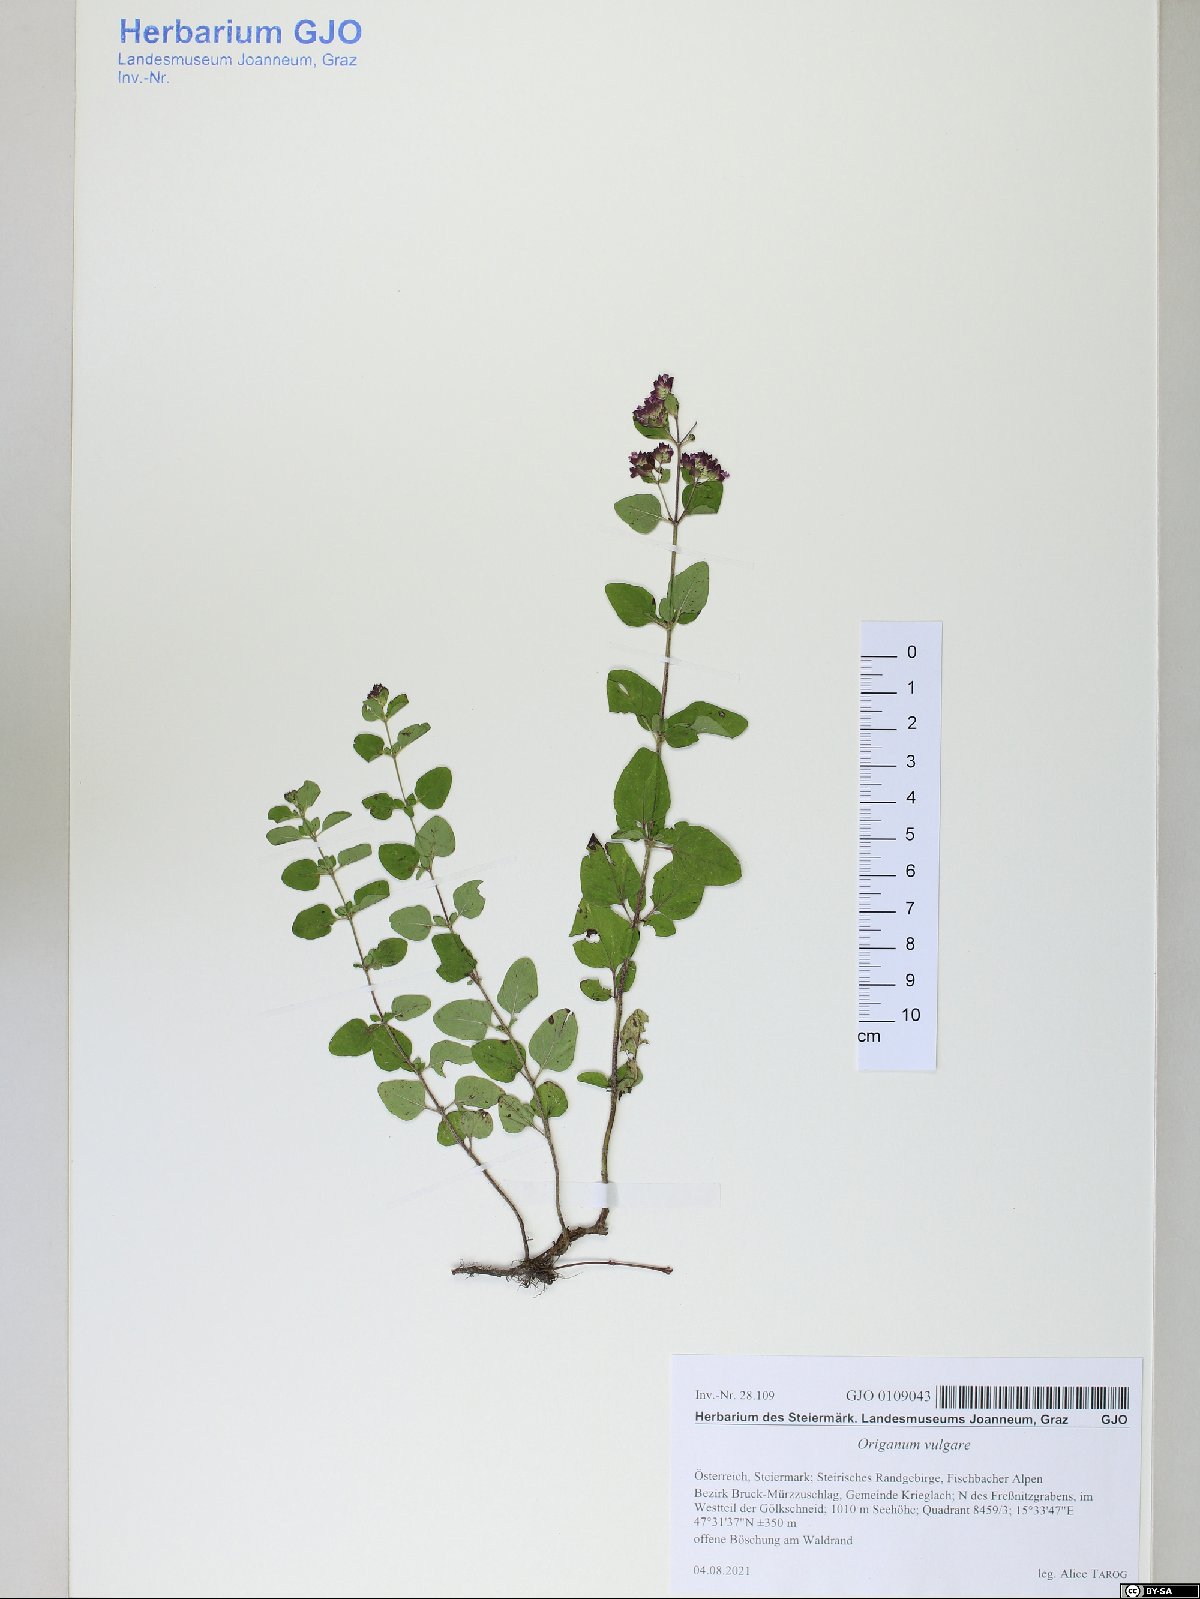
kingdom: Plantae
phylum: Tracheophyta
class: Magnoliopsida
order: Lamiales
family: Lamiaceae
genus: Origanum
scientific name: Origanum vulgare
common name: Wild marjoram
